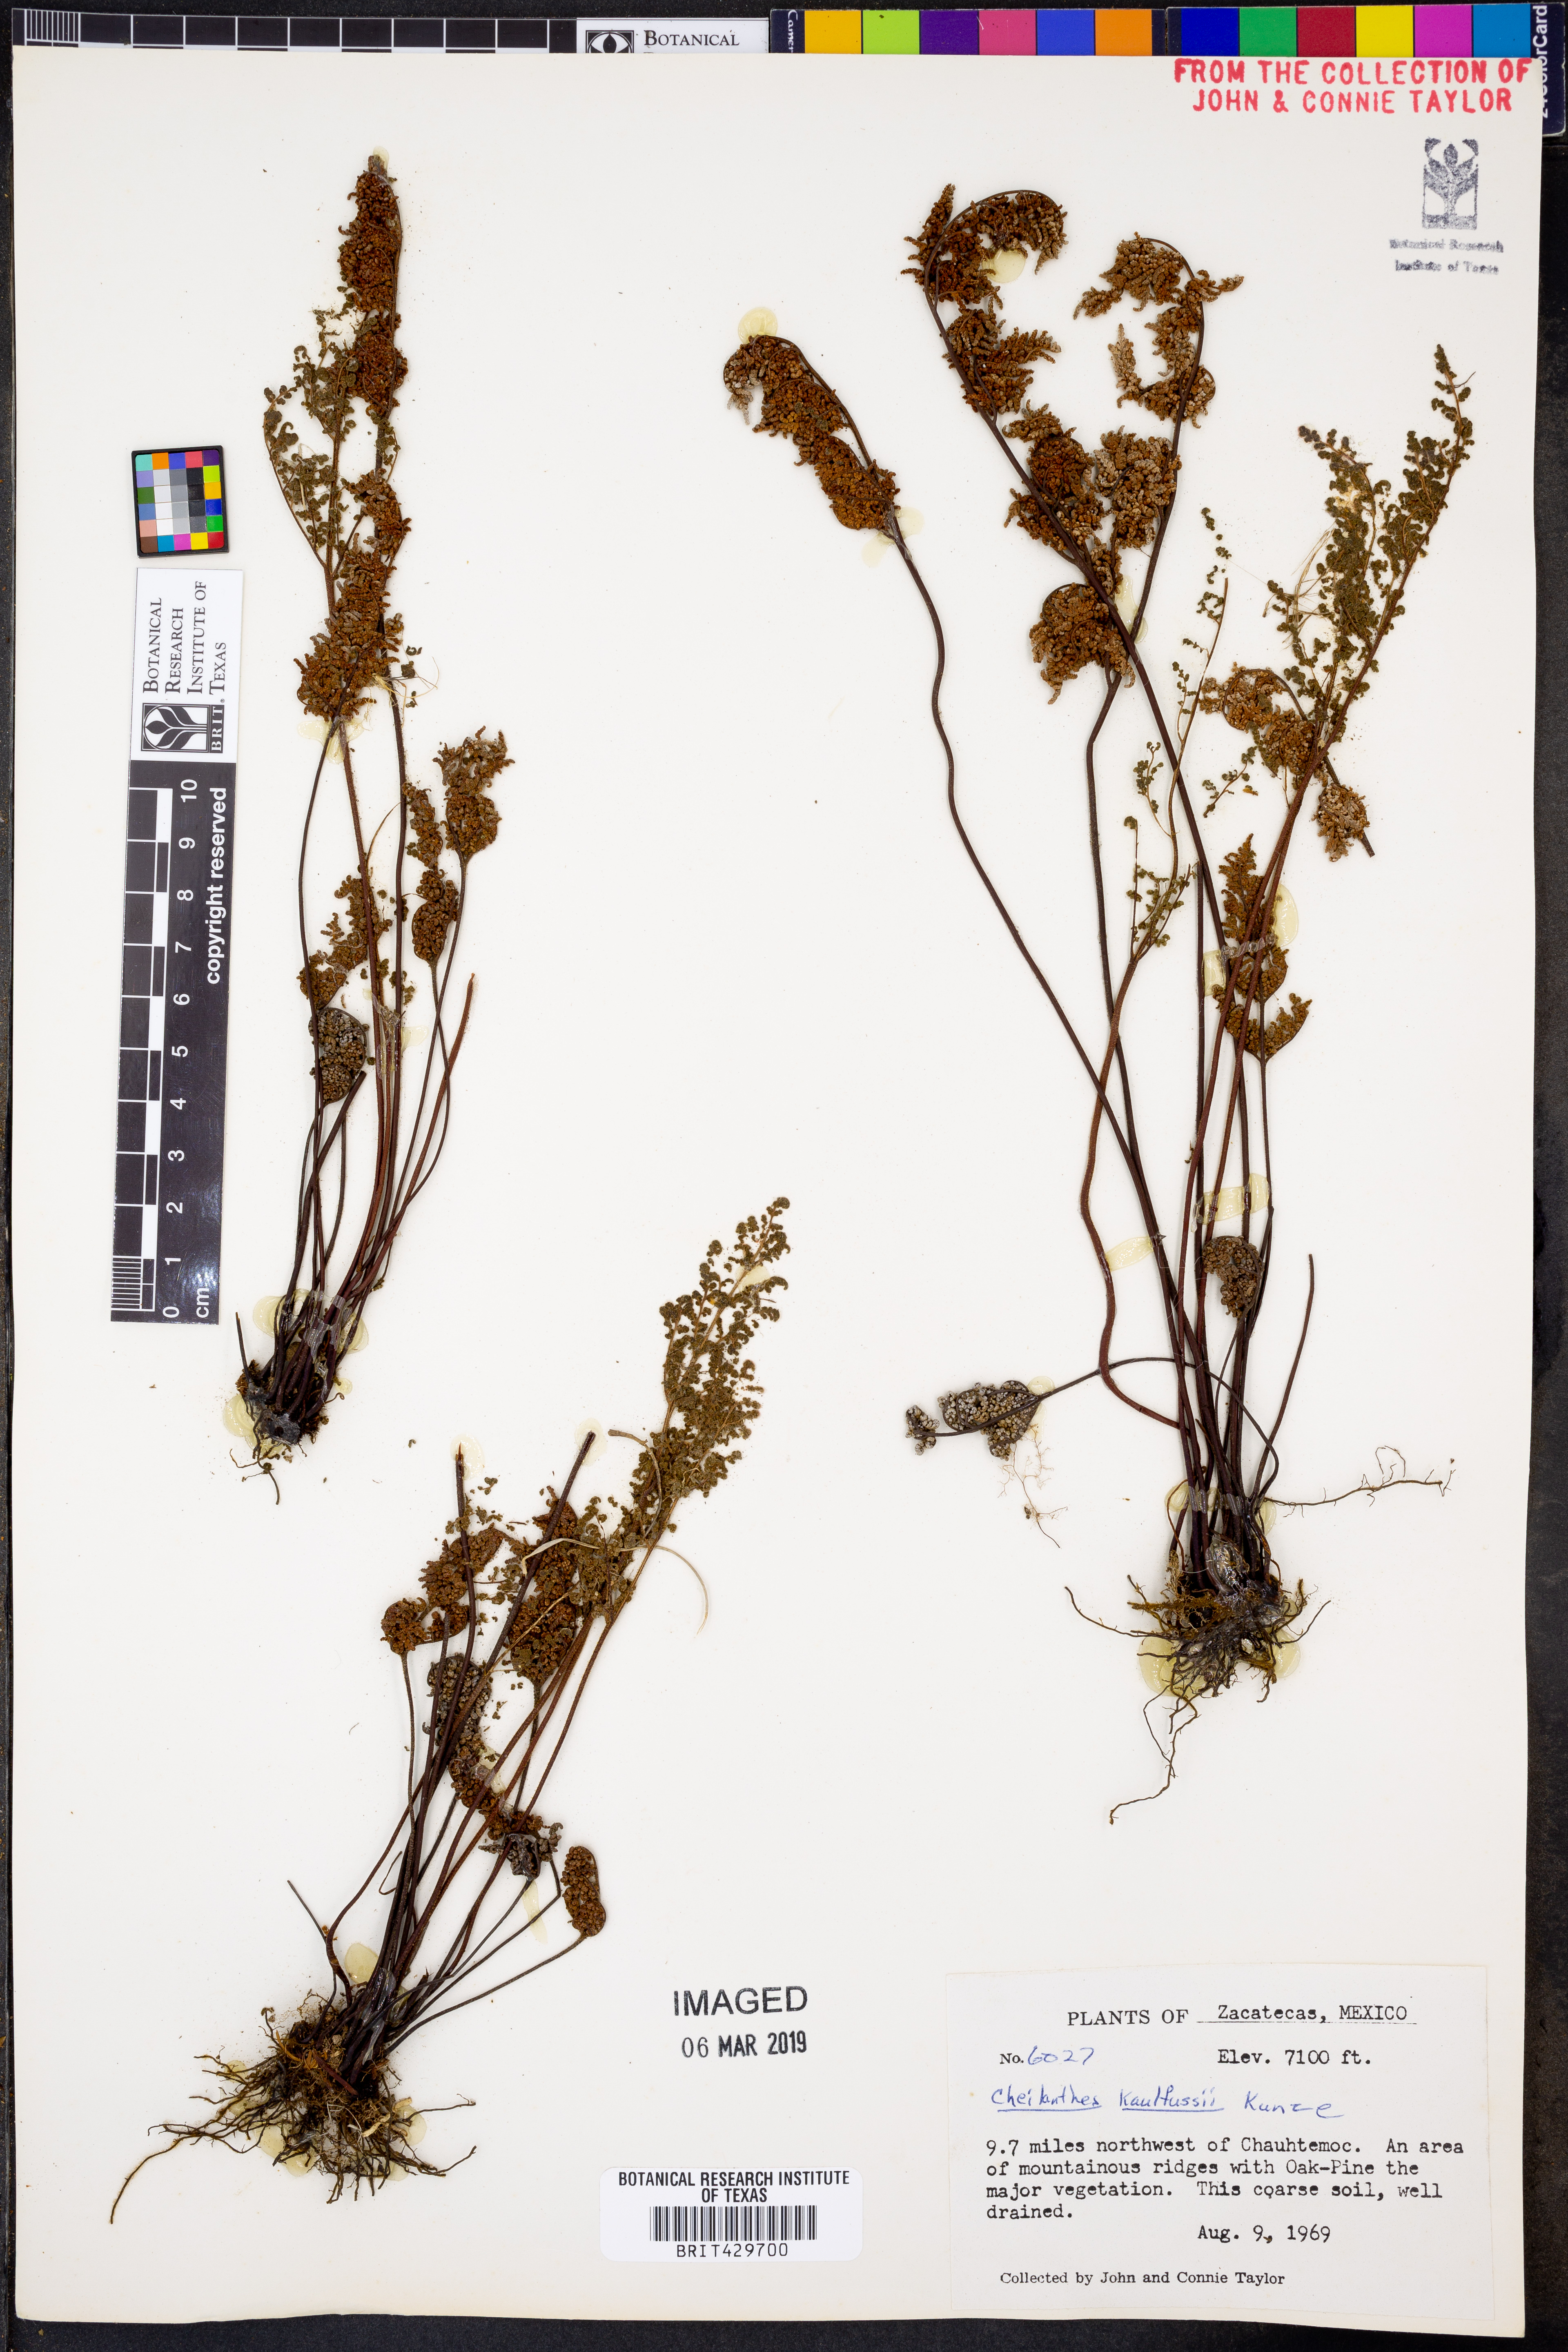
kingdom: Plantae
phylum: Tracheophyta
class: Polypodiopsida
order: Polypodiales
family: Pteridaceae
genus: Gaga
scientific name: Gaga kaulfussii
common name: Glandular lip fern
